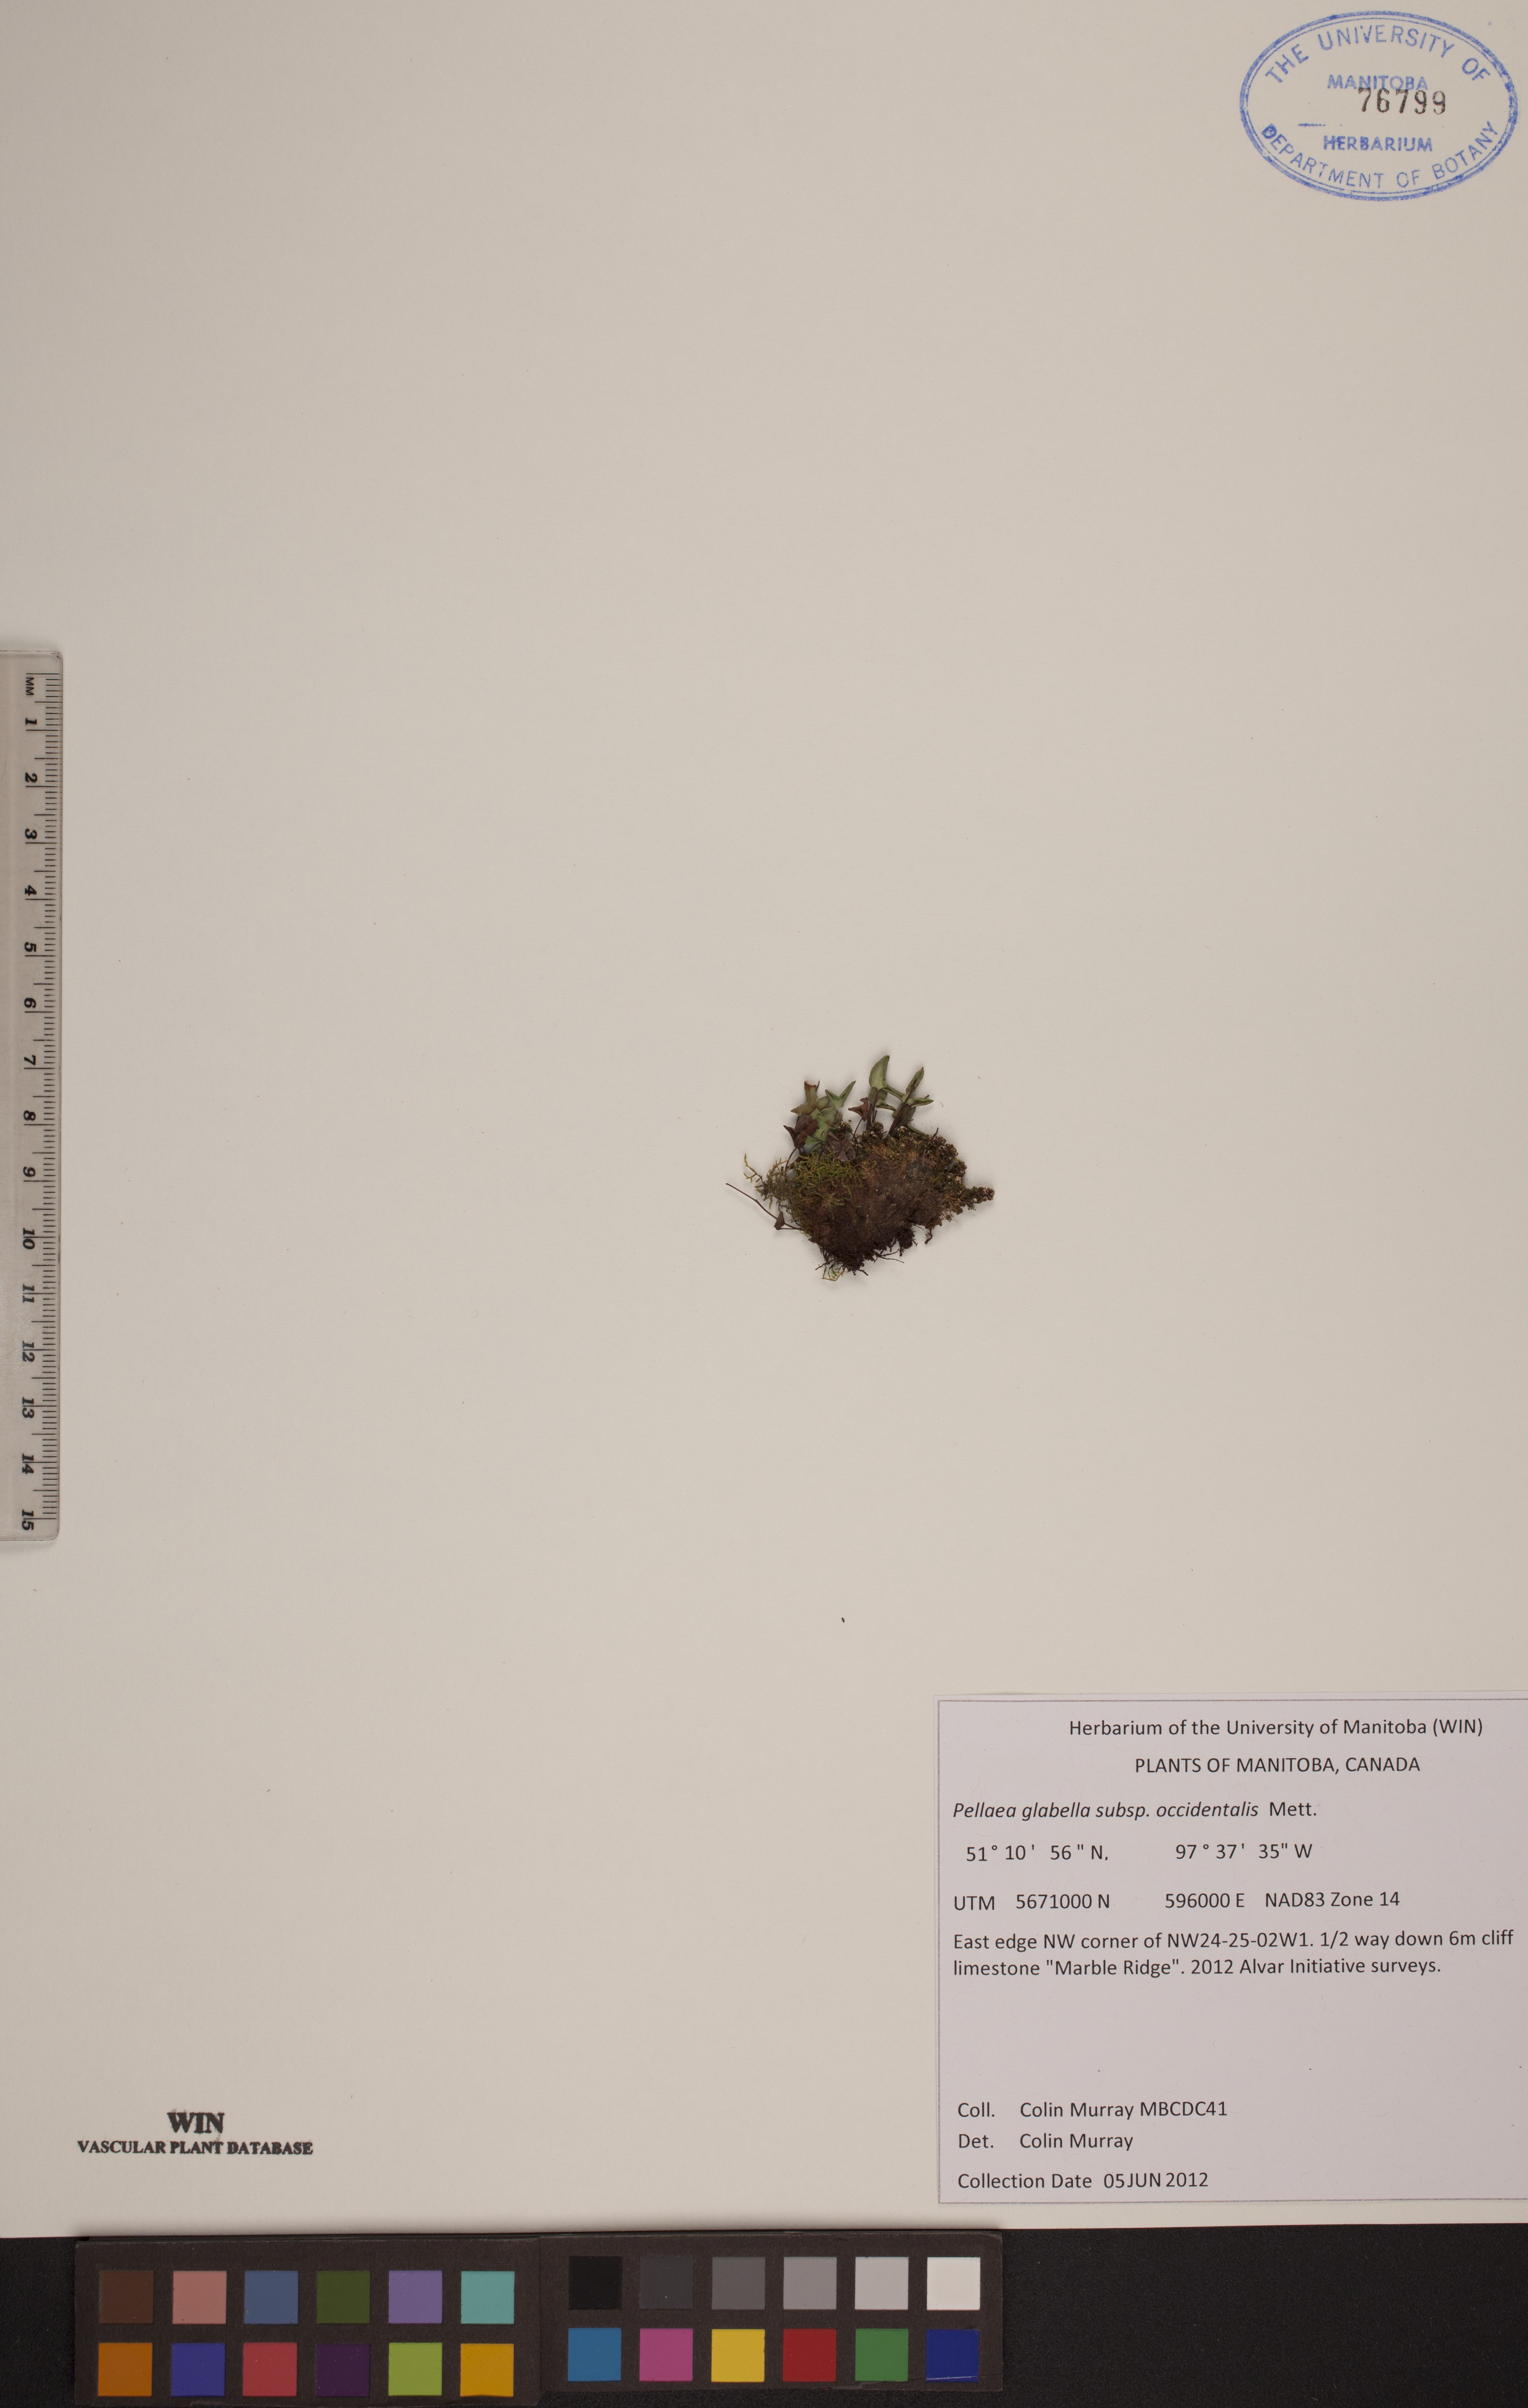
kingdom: Plantae
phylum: Tracheophyta
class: Polypodiopsida
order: Polypodiales
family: Pteridaceae
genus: Pellaea
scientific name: Pellaea glabella
